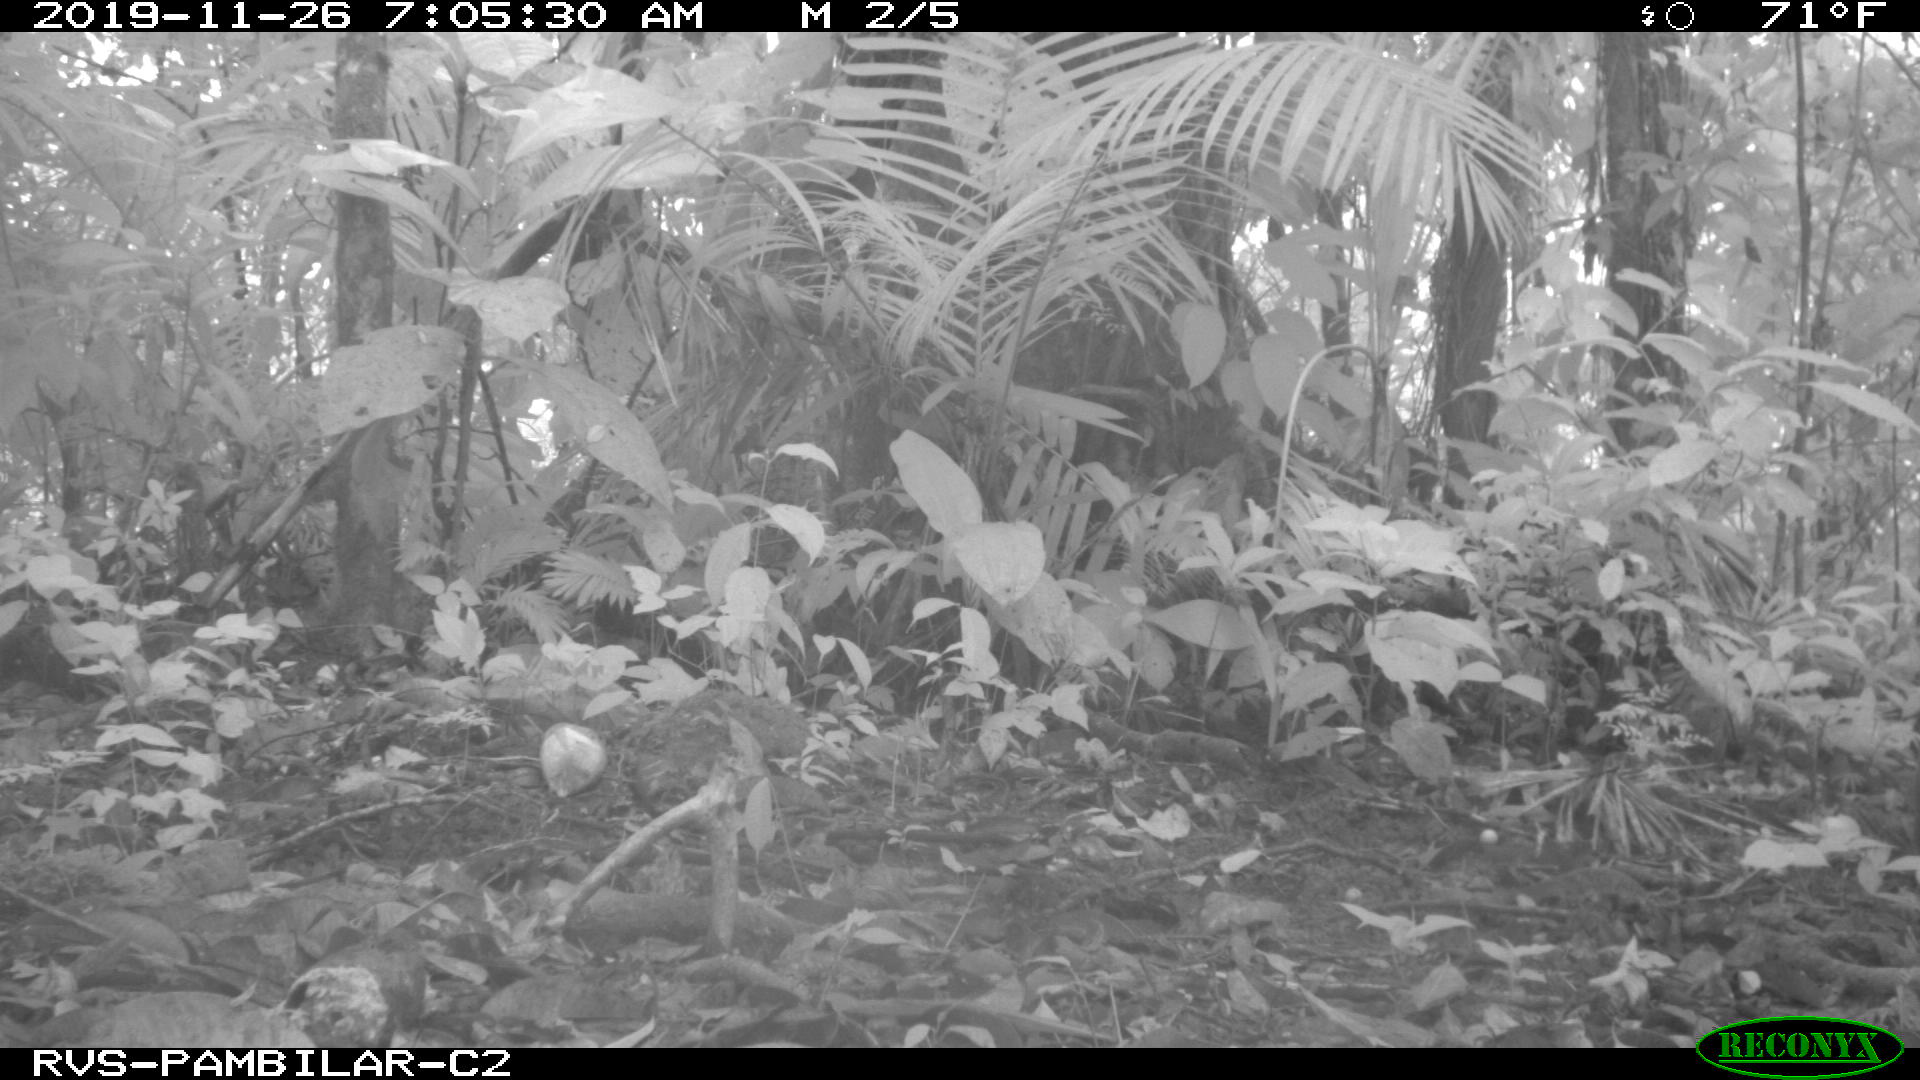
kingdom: Animalia
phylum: Chordata
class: Mammalia
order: Rodentia
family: Dasyproctidae
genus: Dasyprocta
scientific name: Dasyprocta punctata
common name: Central american agouti
